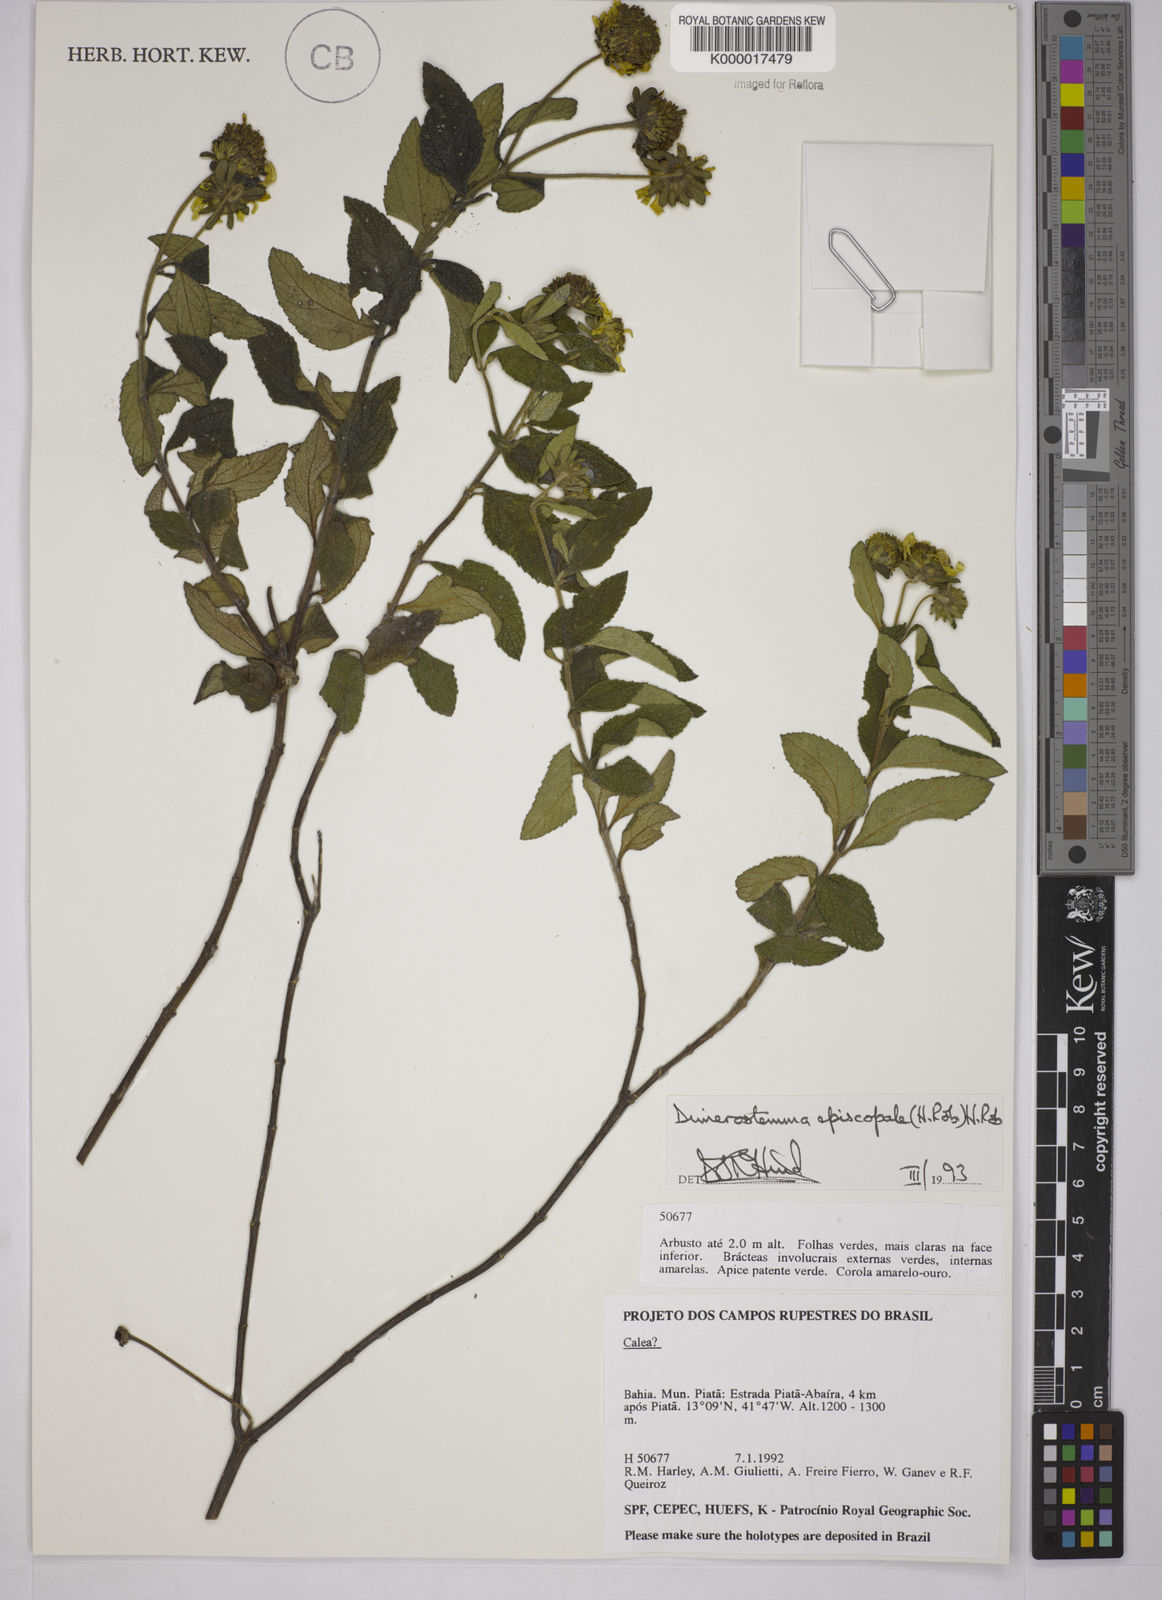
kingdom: Plantae
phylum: Tracheophyta
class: Magnoliopsida
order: Asterales
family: Asteraceae
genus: Dimerostemma
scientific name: Dimerostemma episcopale
